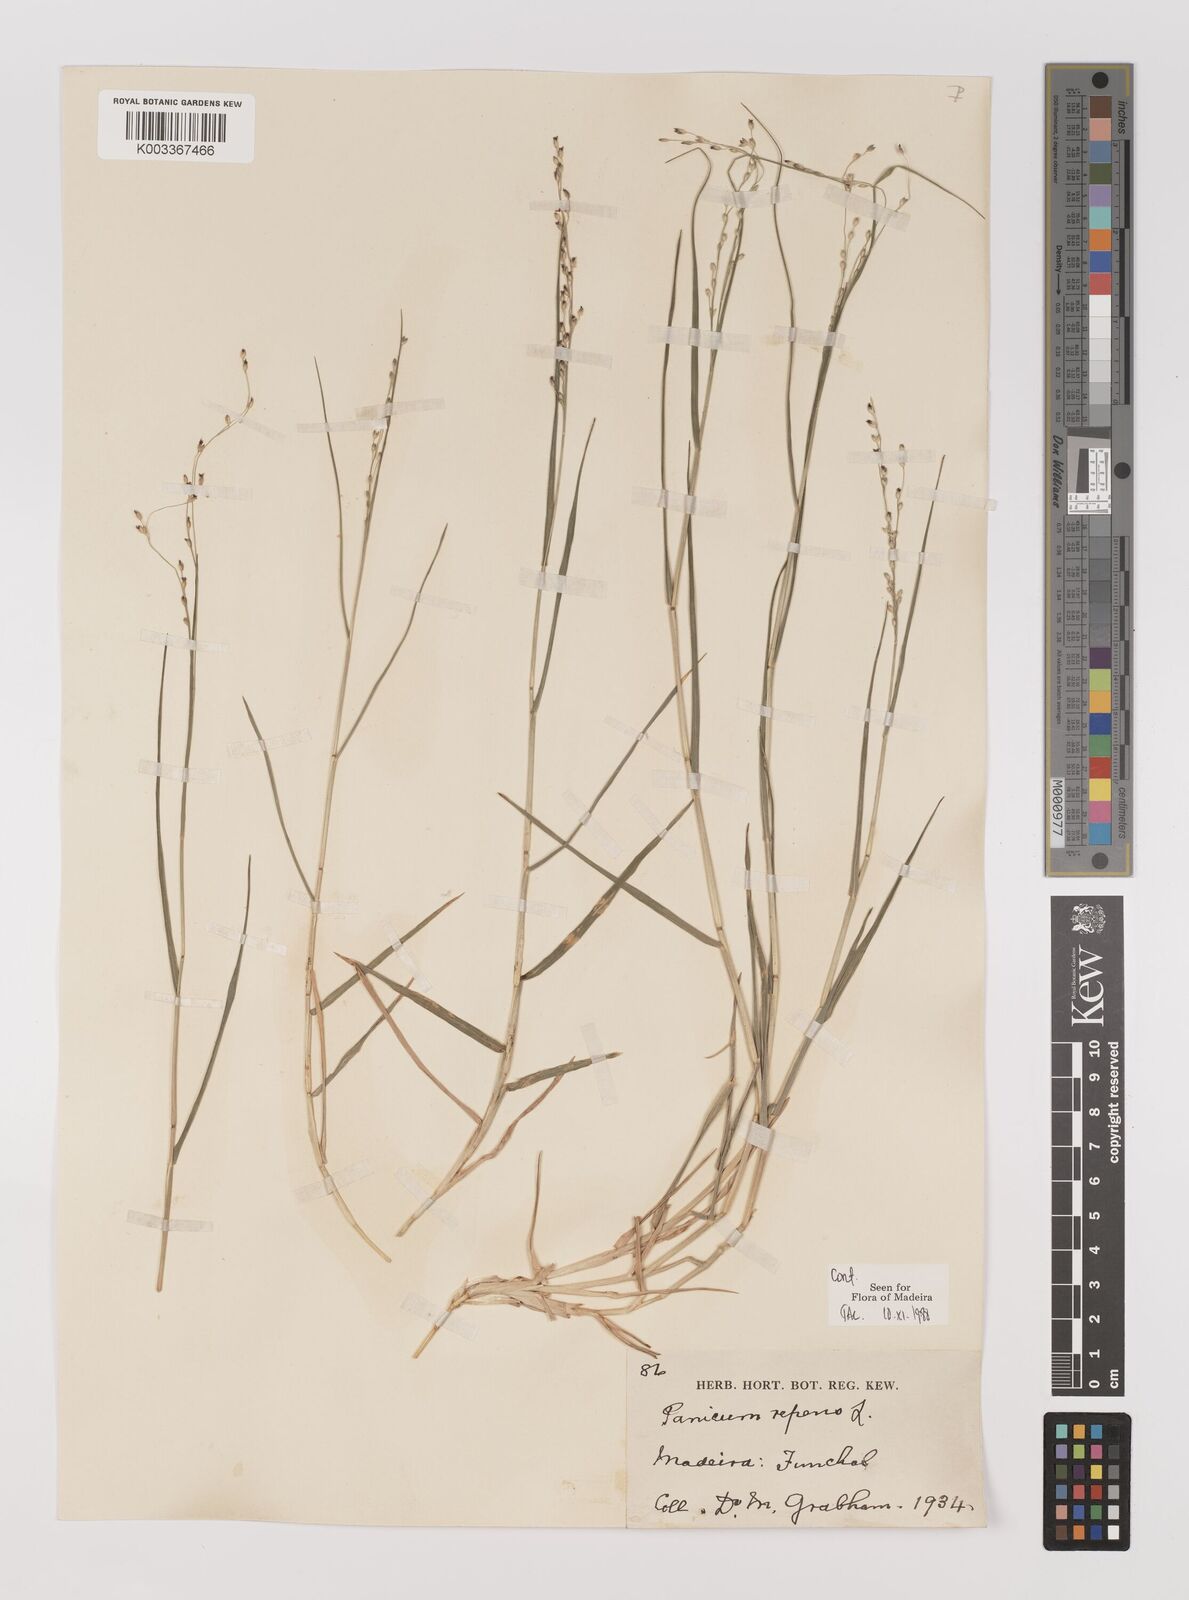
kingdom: Plantae
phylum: Tracheophyta
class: Liliopsida
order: Poales
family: Poaceae
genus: Panicum
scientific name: Panicum repens
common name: Torpedo grass
